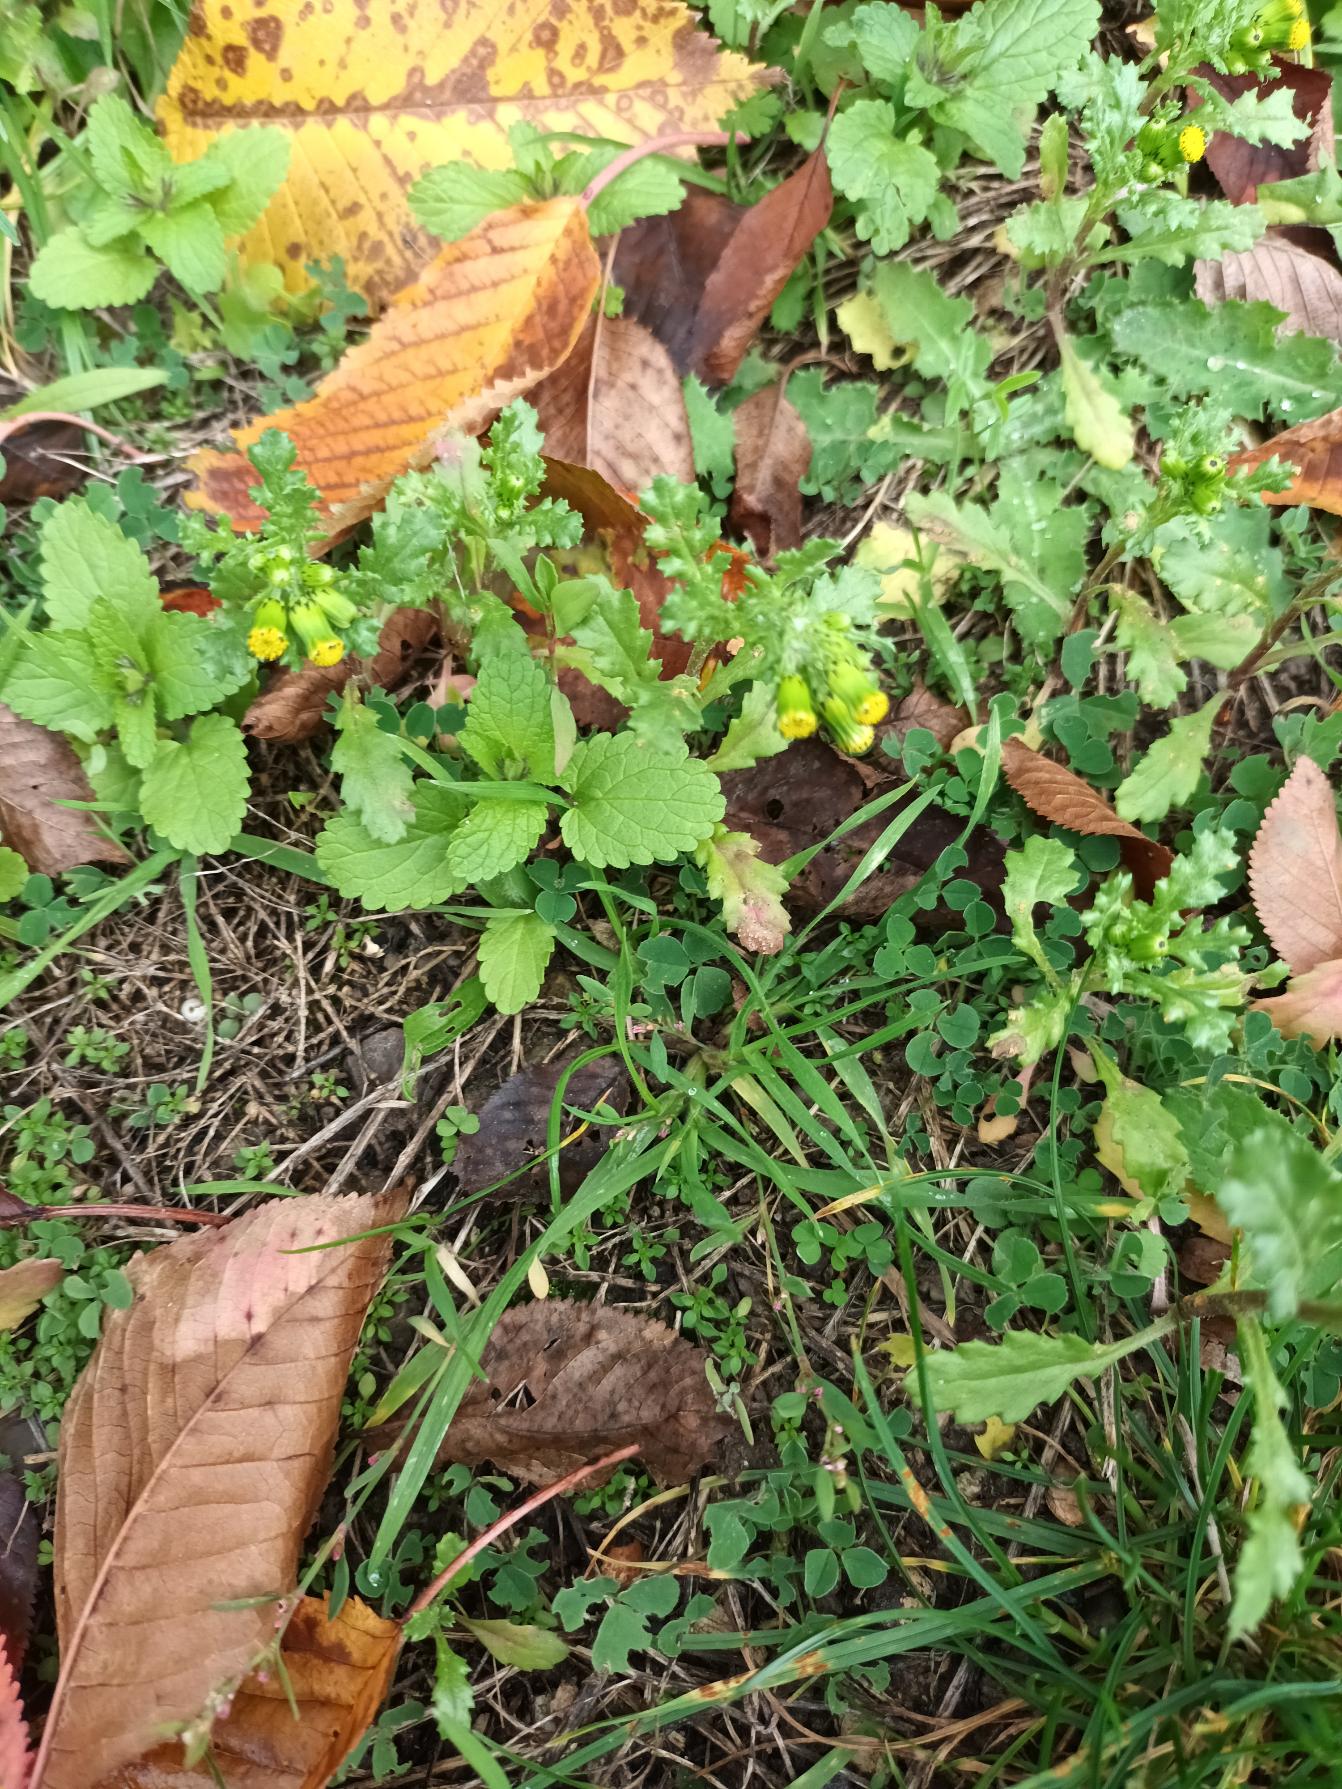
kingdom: Plantae
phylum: Tracheophyta
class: Magnoliopsida
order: Asterales
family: Asteraceae
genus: Senecio
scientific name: Senecio vulgaris
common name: Almindelig brandbæger
